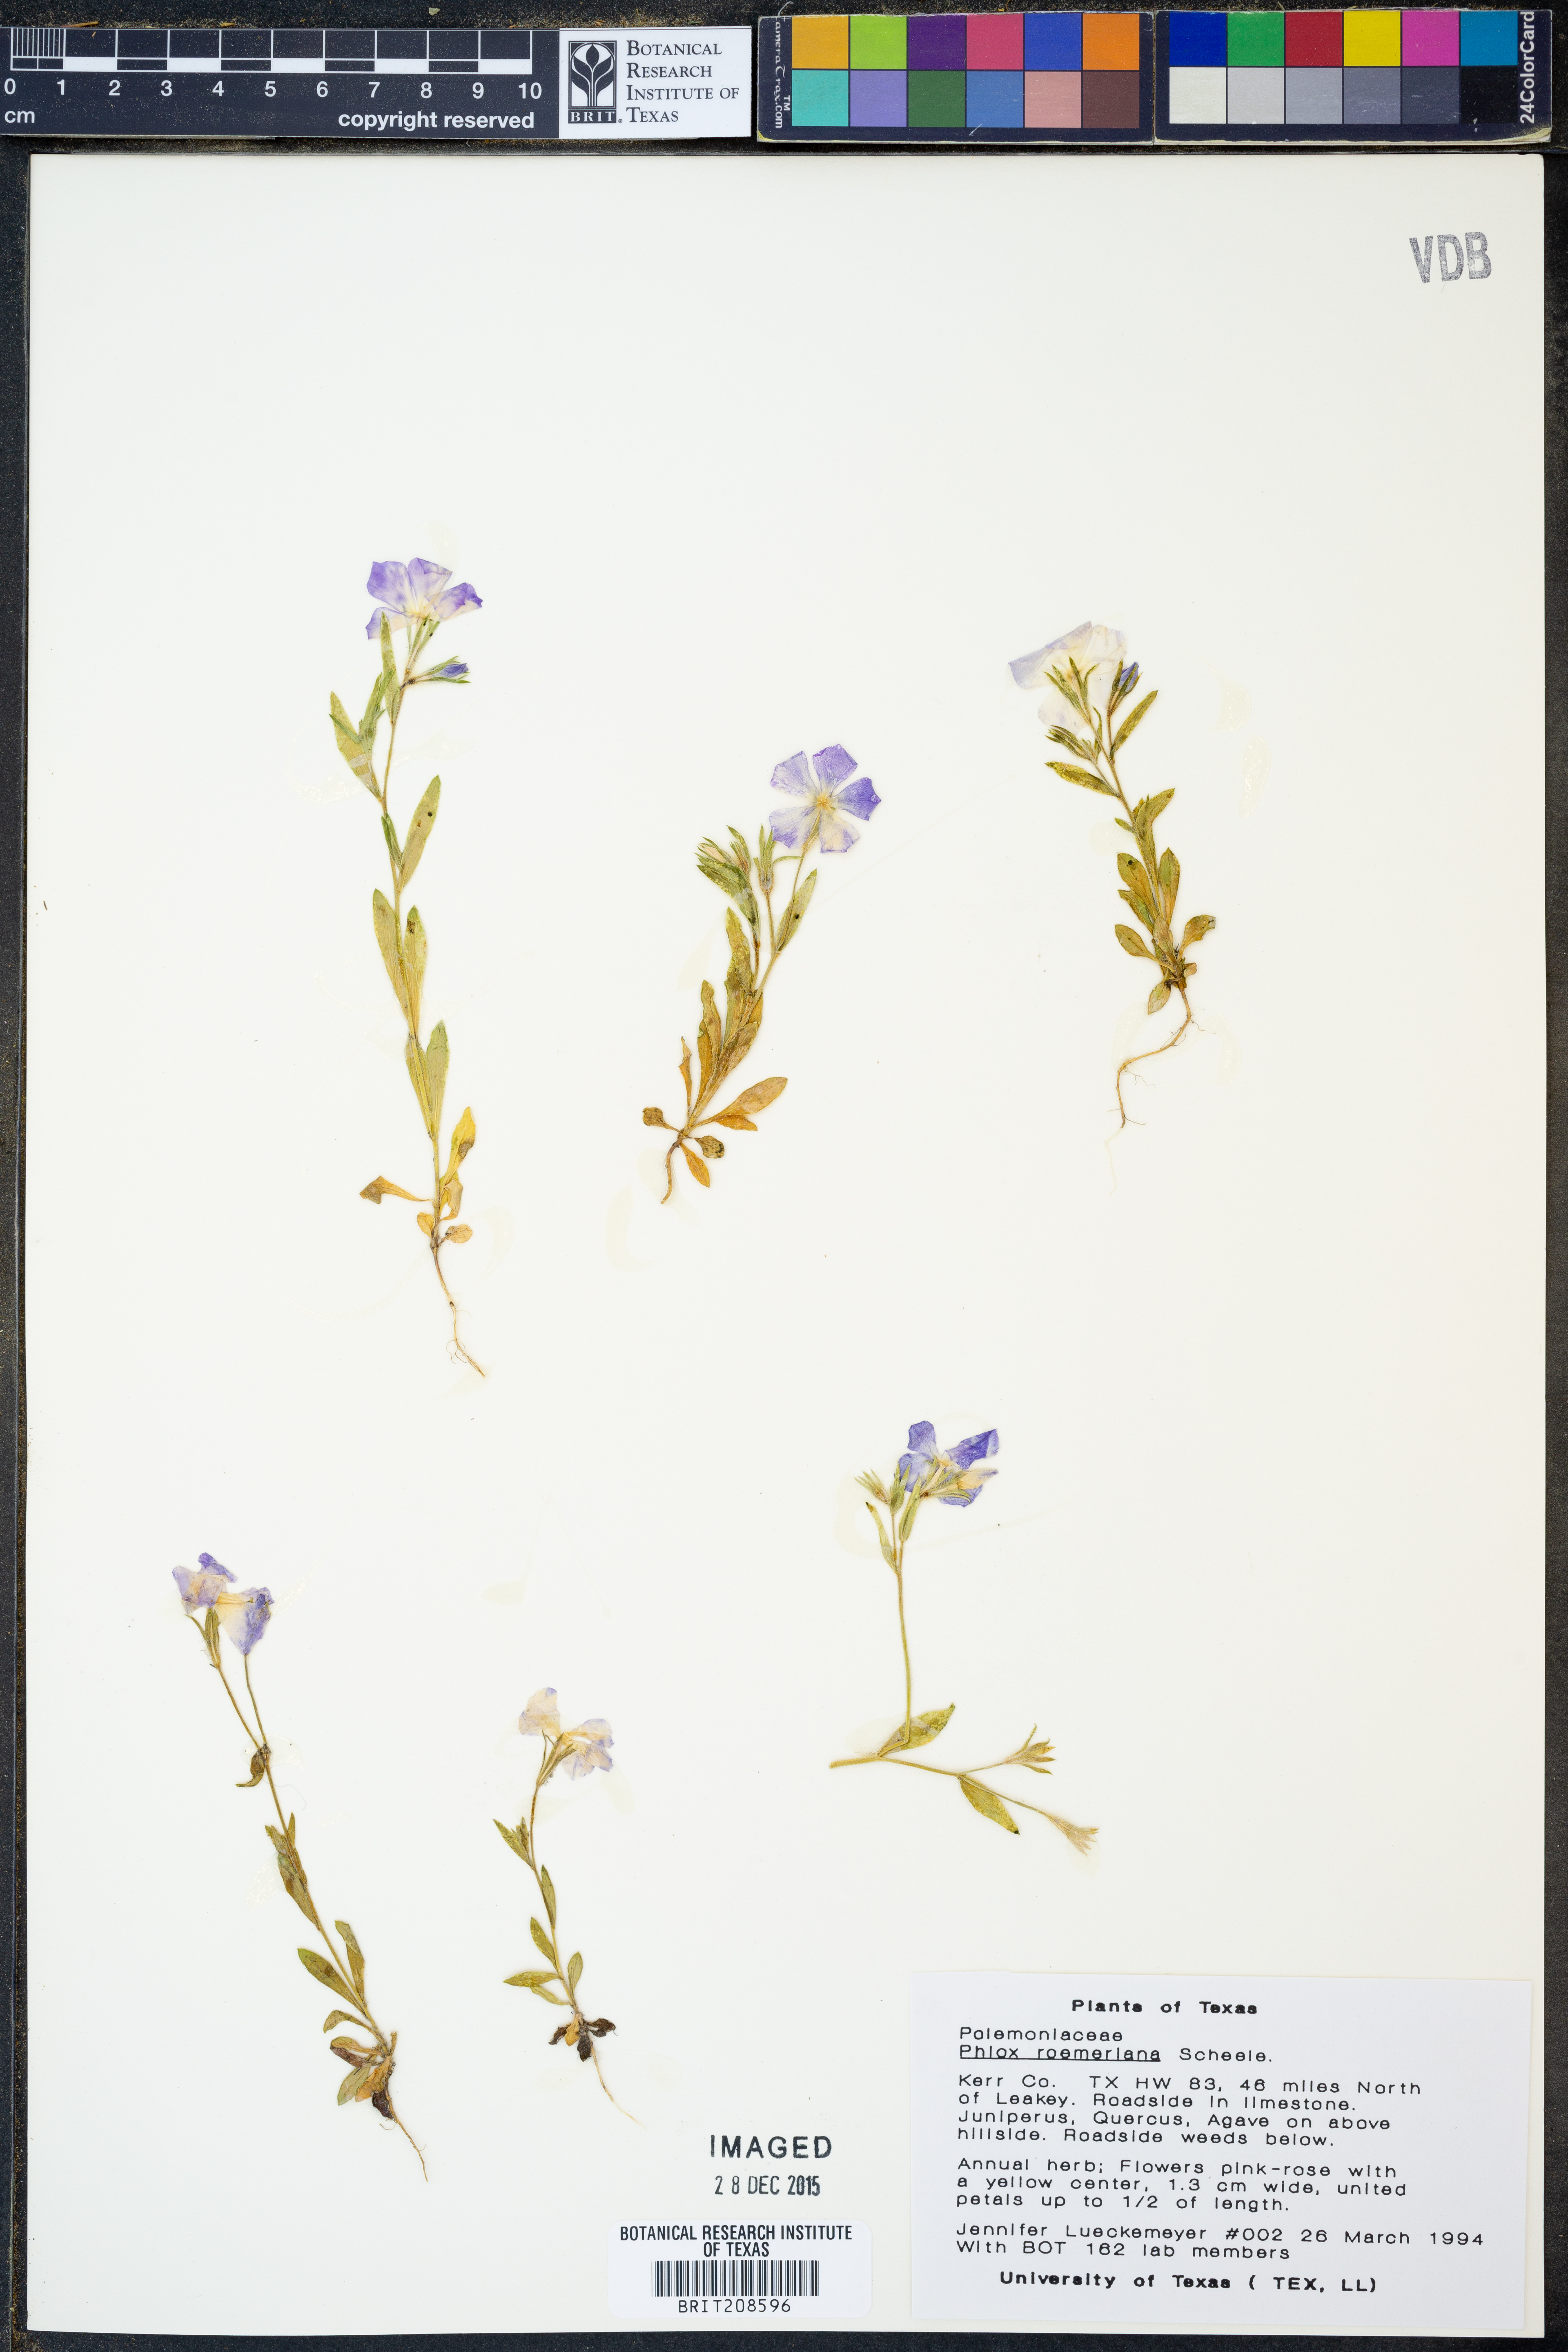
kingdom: Plantae
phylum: Tracheophyta
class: Magnoliopsida
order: Ericales
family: Polemoniaceae
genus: Phlox
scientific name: Phlox roemeriana
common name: Roemer's phlox
